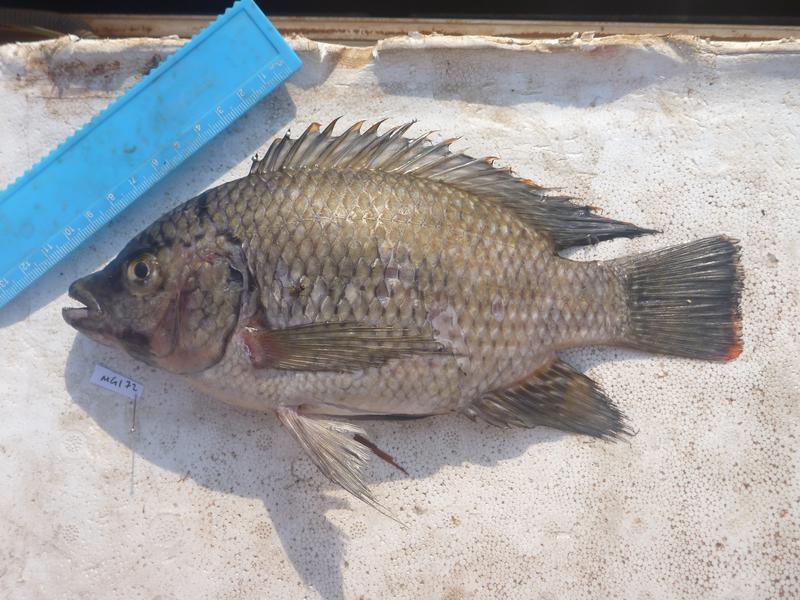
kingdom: Animalia
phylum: Chordata
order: Perciformes
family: Cichlidae
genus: Oreochromis
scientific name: Oreochromis karomo
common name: Karomo
